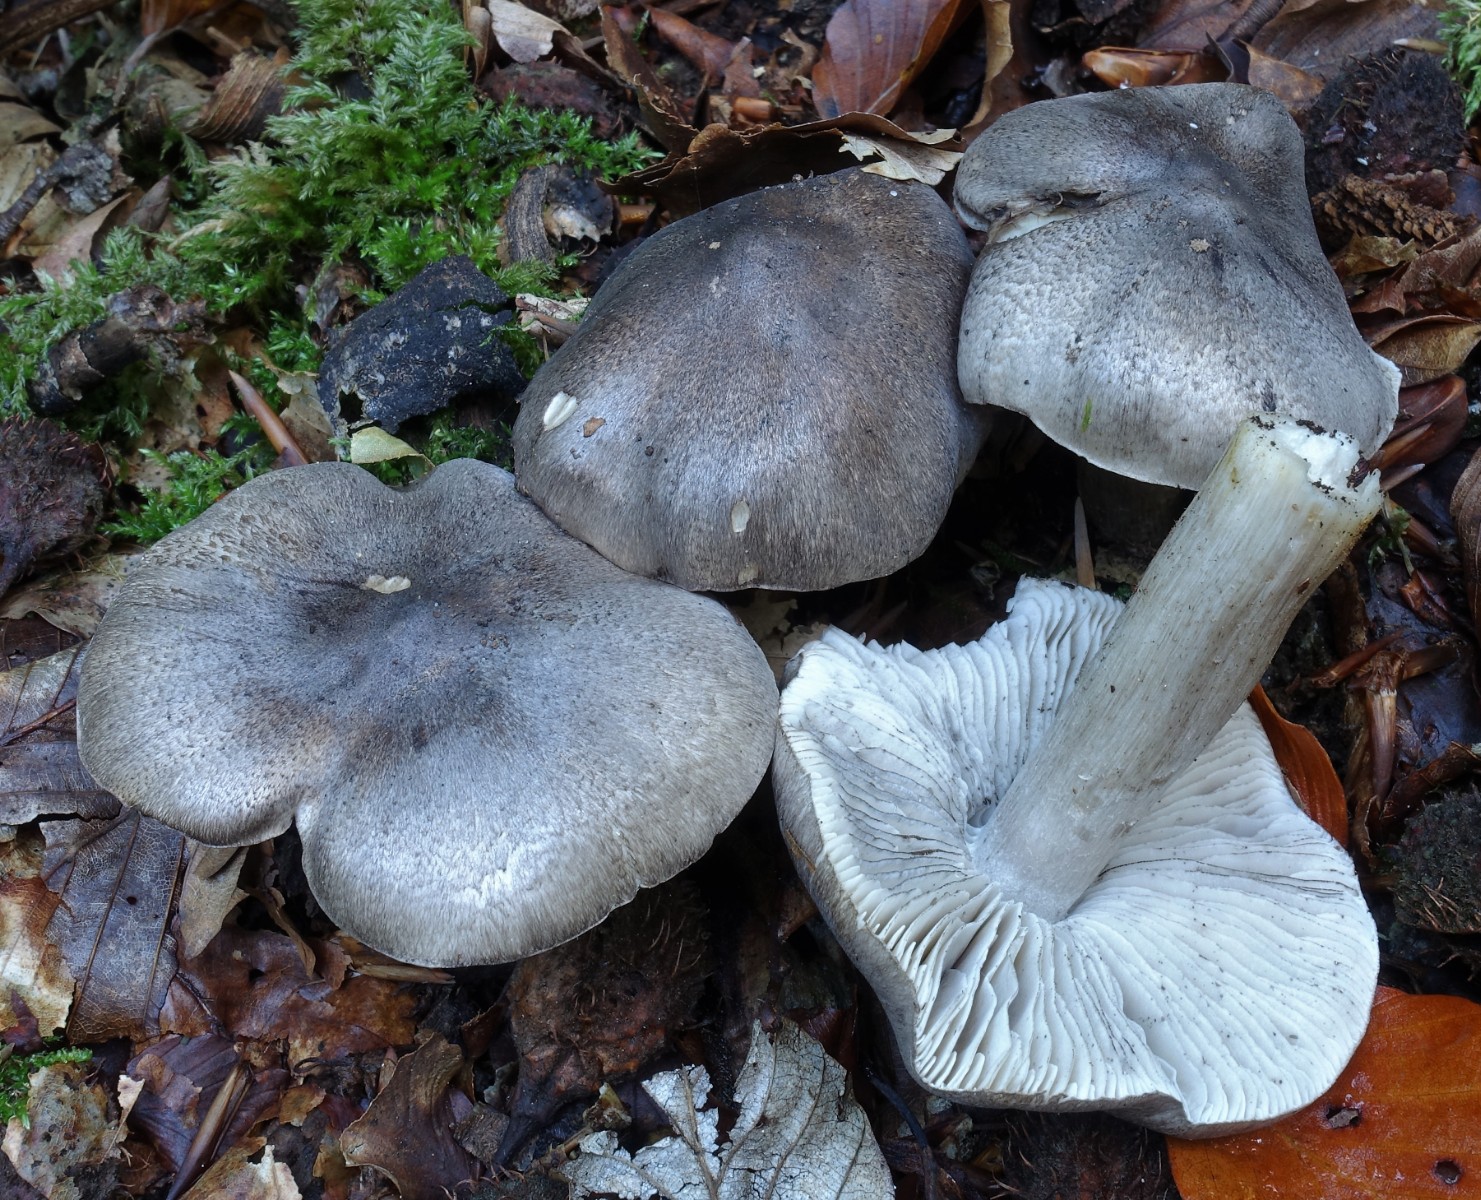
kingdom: Fungi
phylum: Basidiomycota
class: Agaricomycetes
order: Agaricales
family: Tricholomataceae
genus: Tricholoma
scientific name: Tricholoma sciodes
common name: stribet ridderhat
